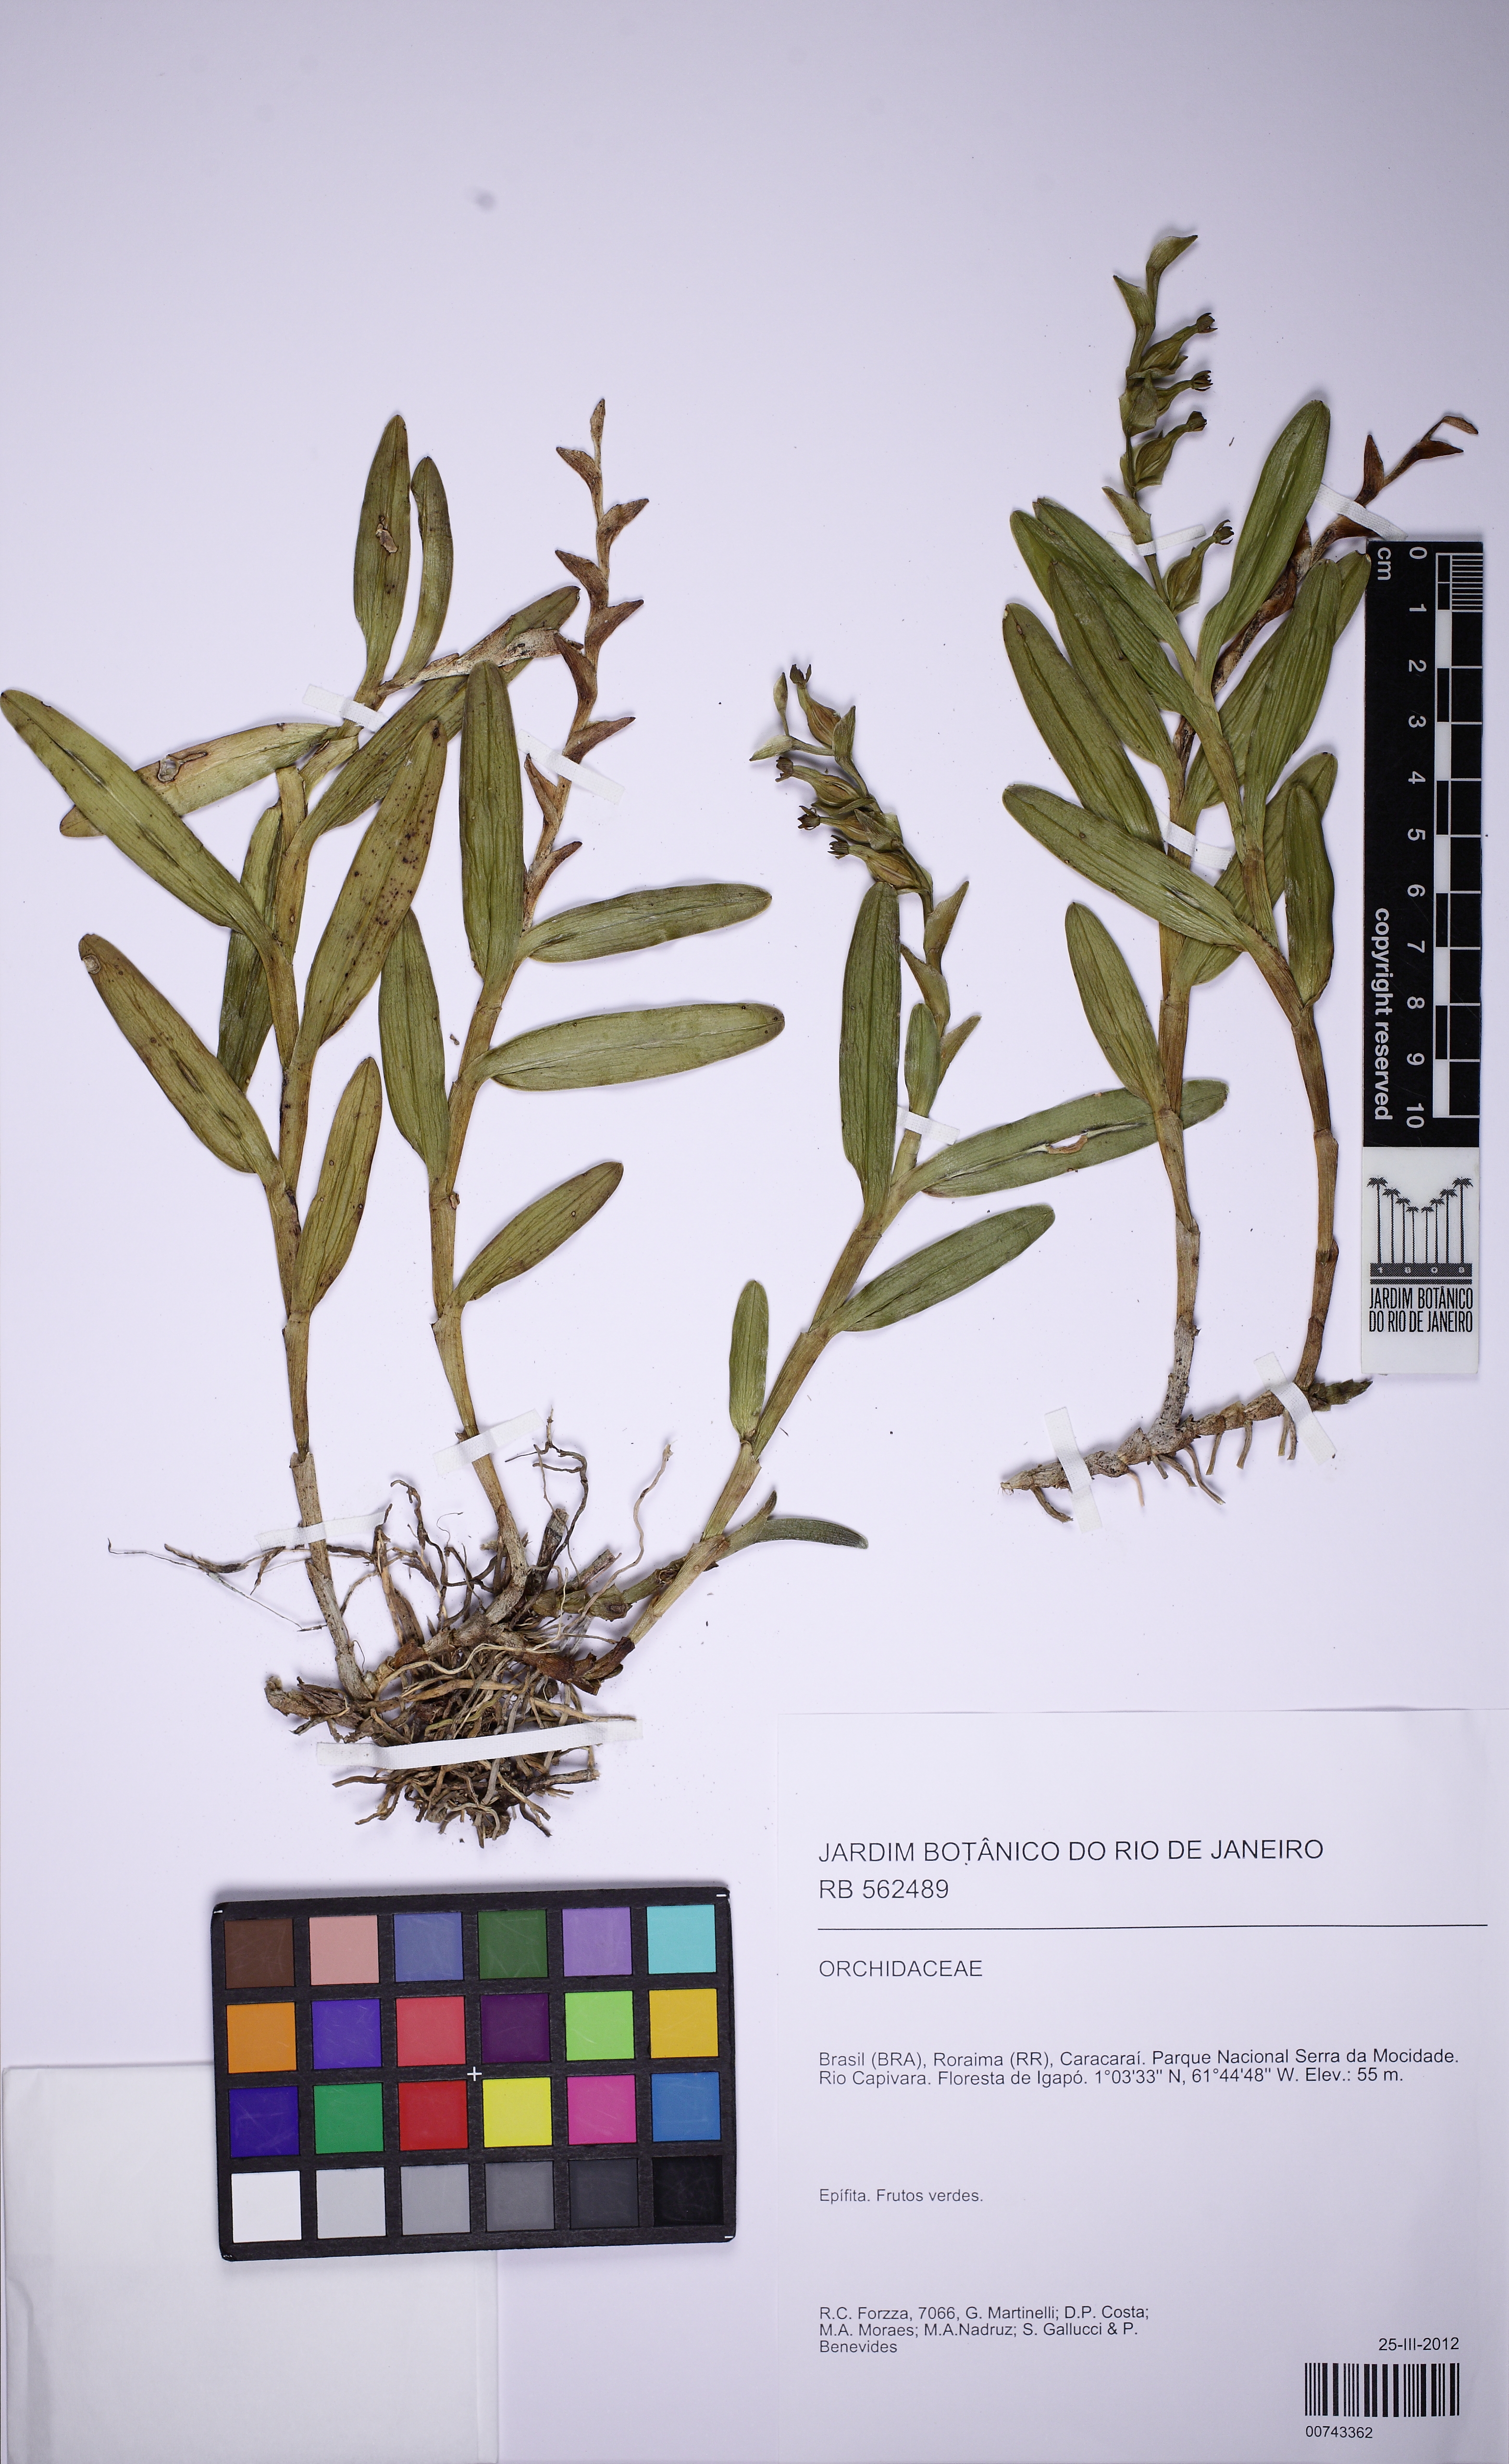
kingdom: Plantae
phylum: Tracheophyta
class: Liliopsida
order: Asparagales
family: Orchidaceae
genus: Epidendrum
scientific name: Epidendrum rigidum
